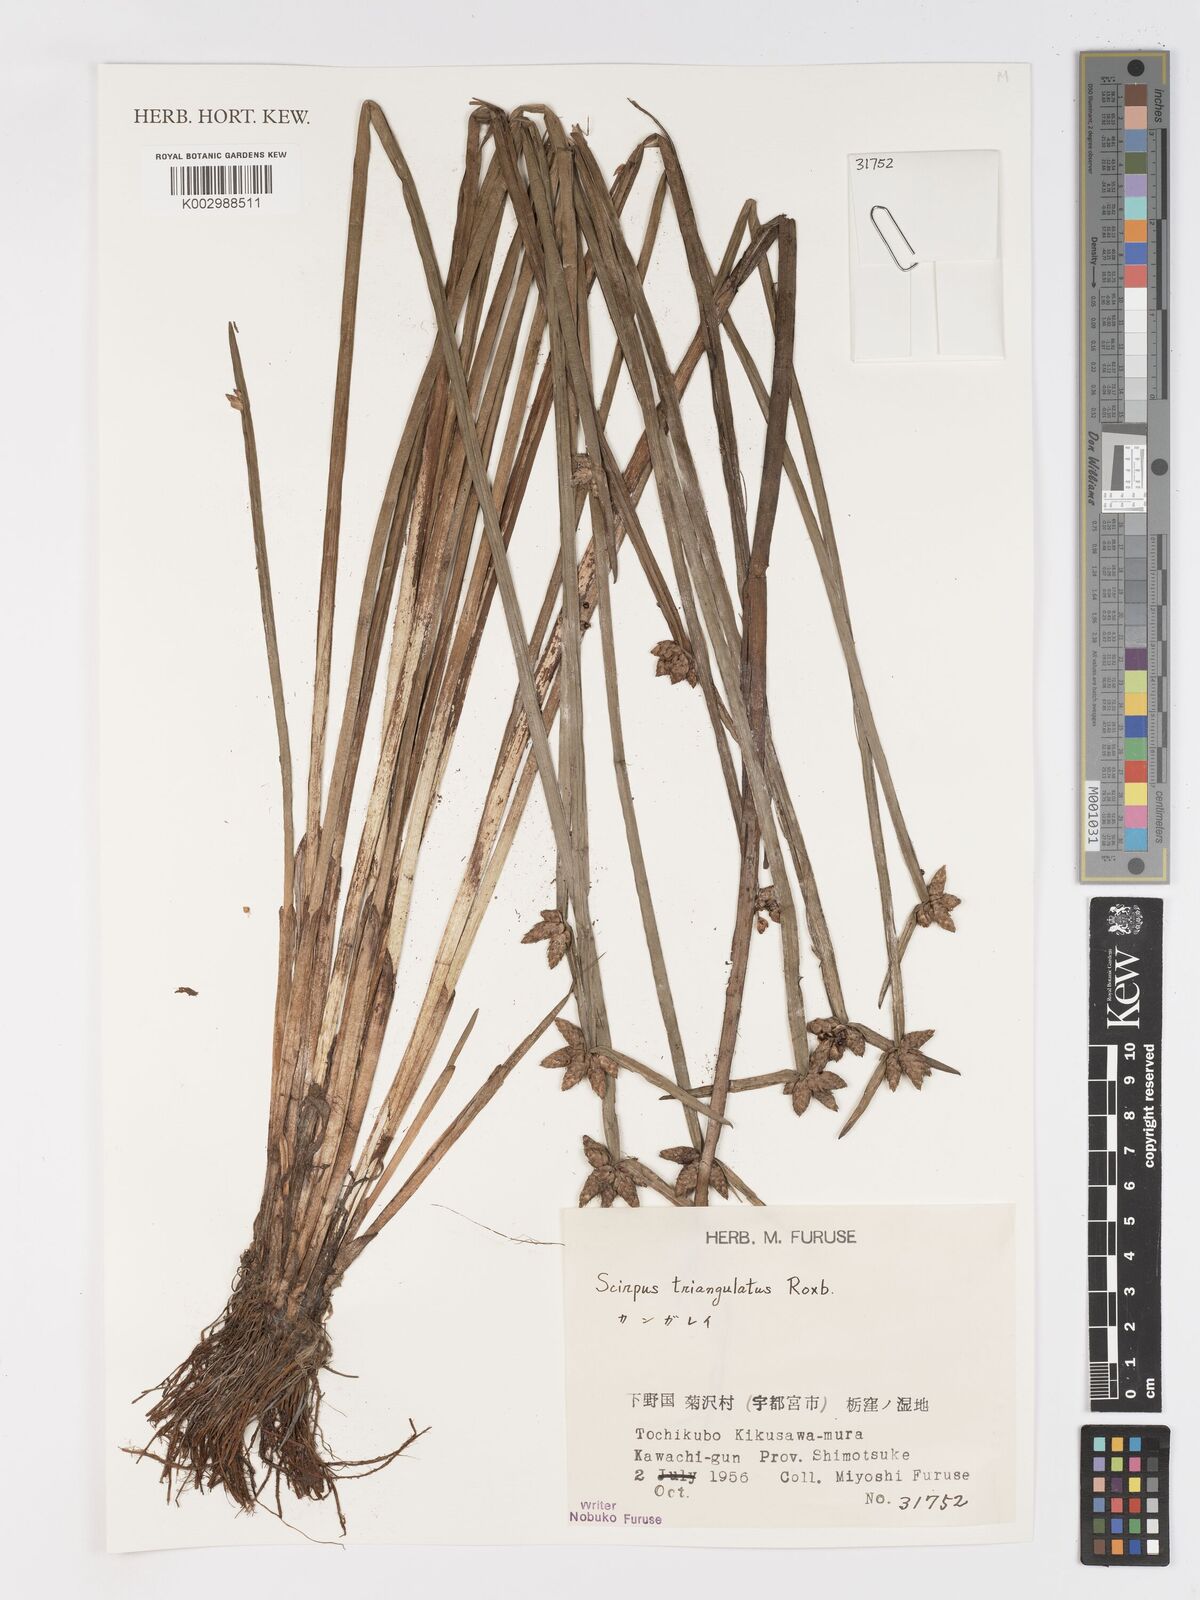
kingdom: Plantae
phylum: Tracheophyta
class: Liliopsida
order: Poales
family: Cyperaceae
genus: Schoenoplectiella
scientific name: Schoenoplectiella triangulata
